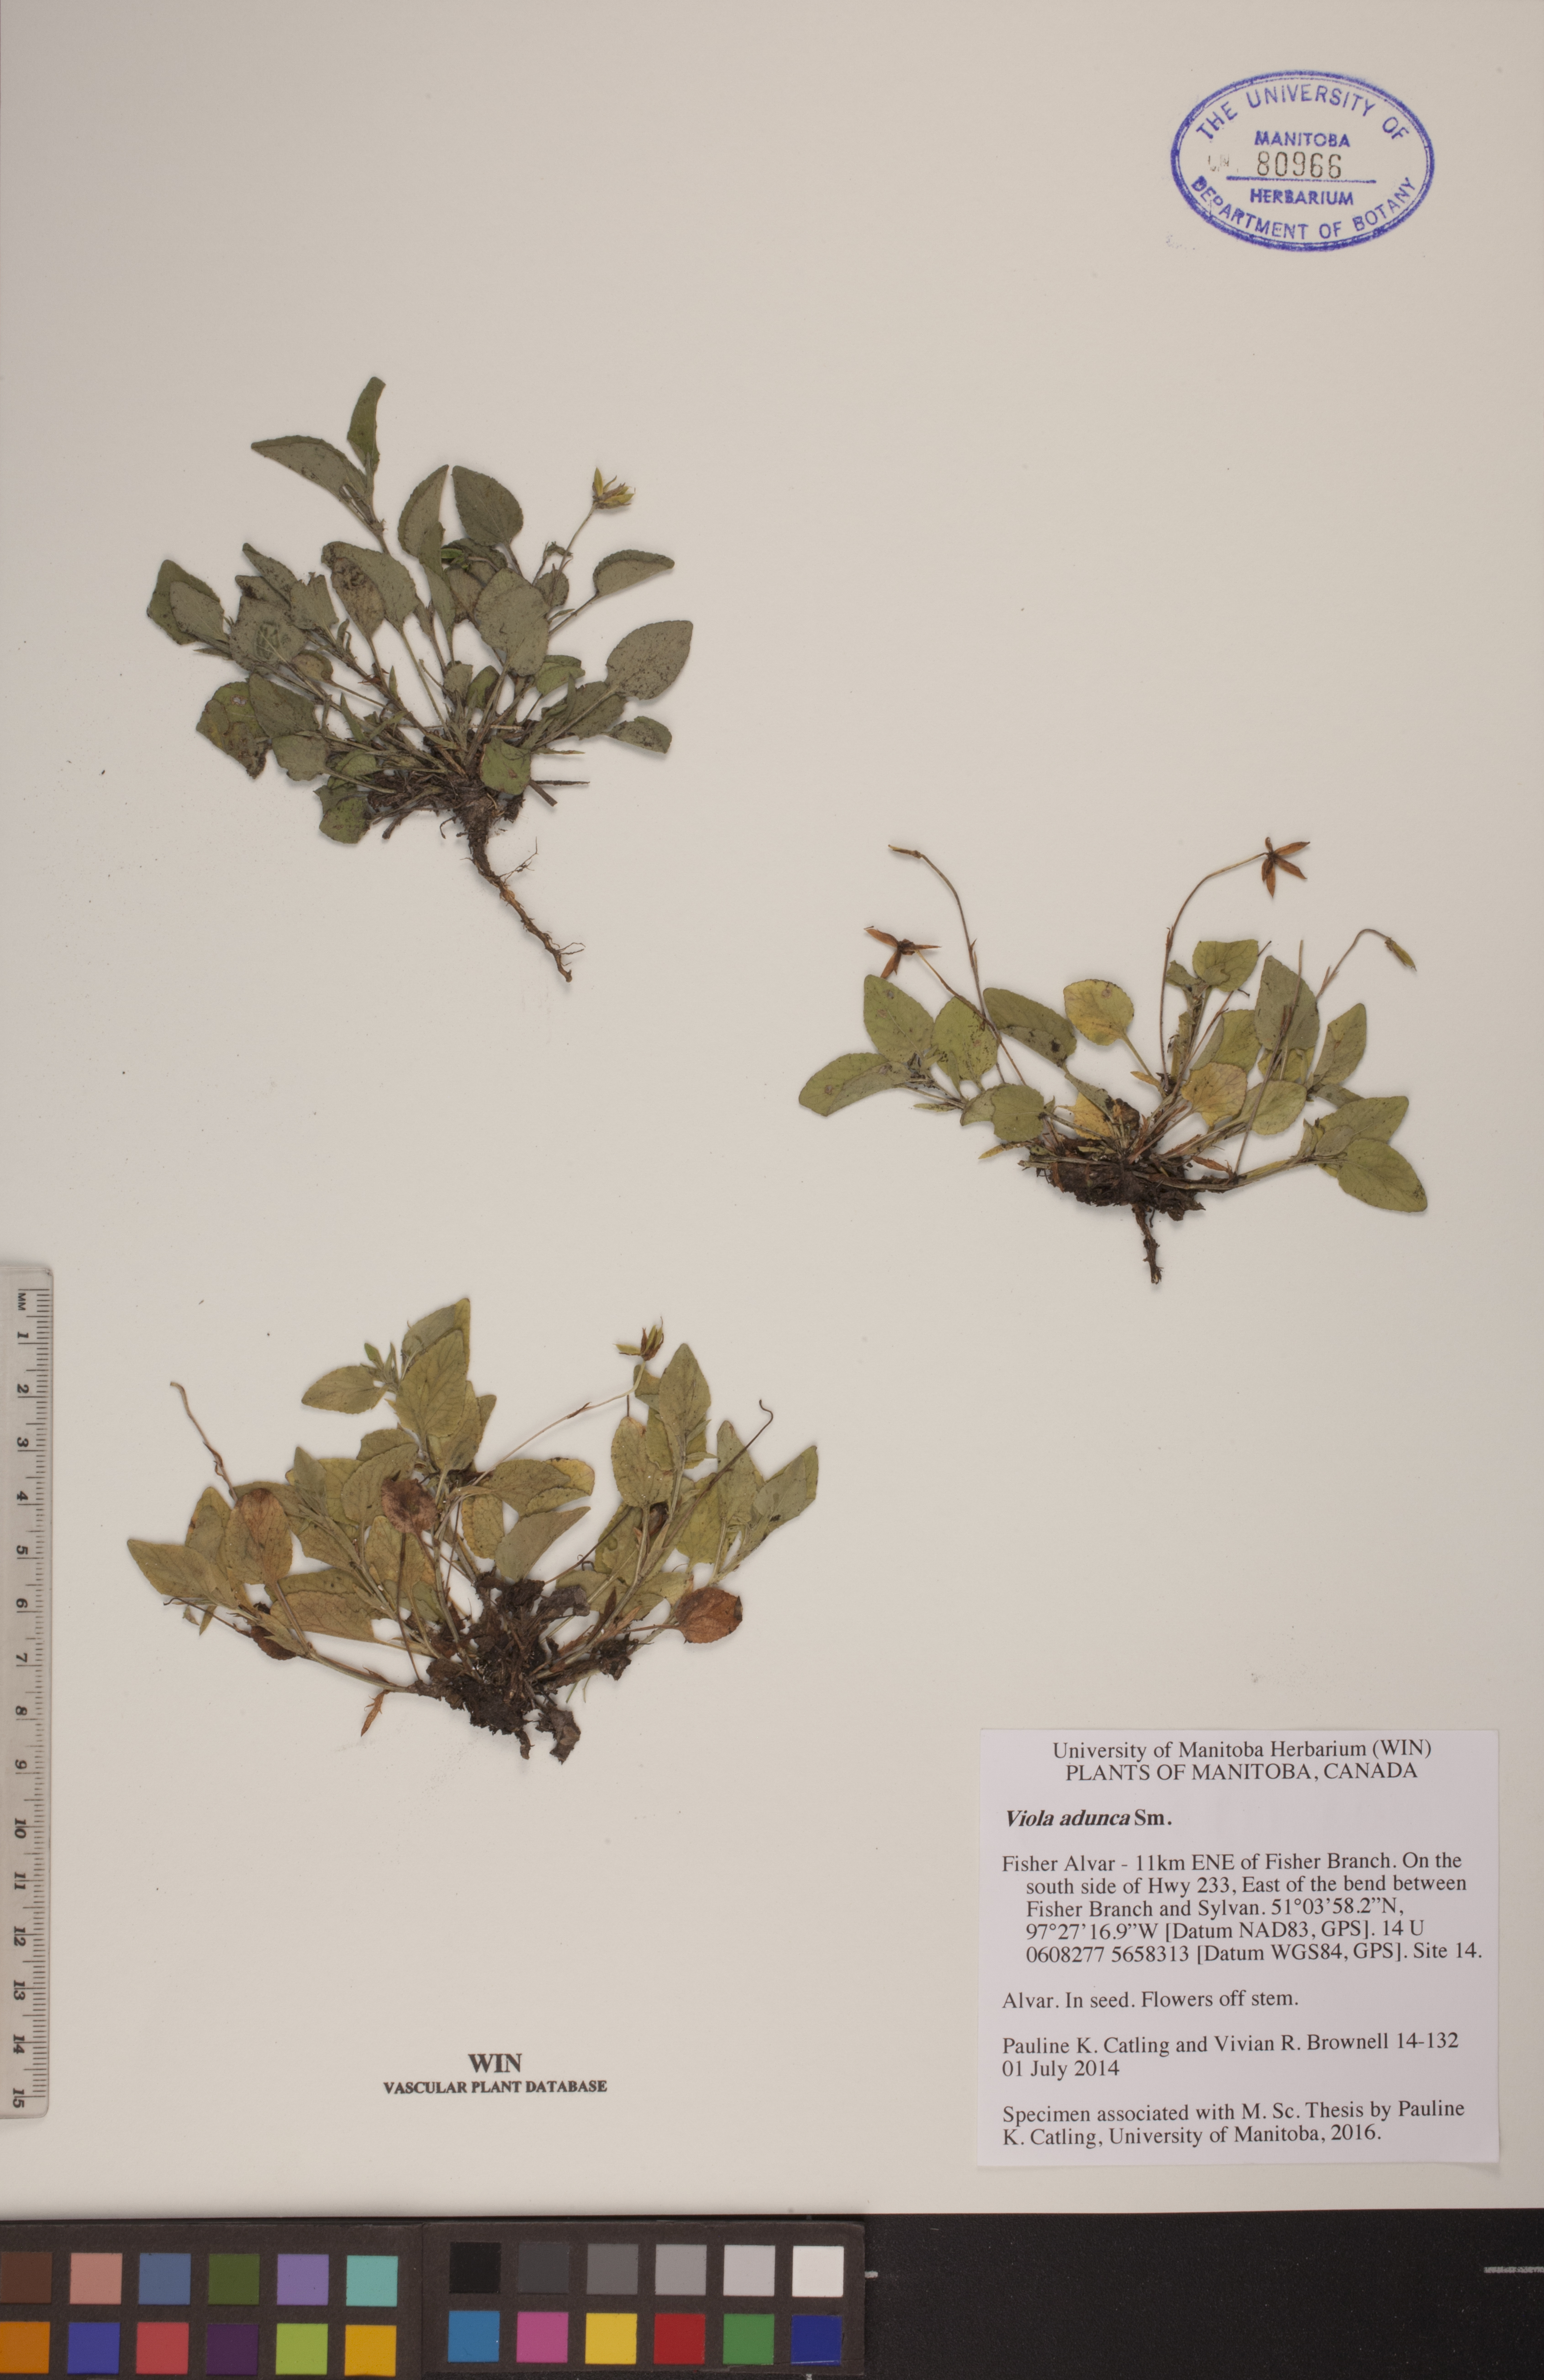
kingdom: Plantae
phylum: Tracheophyta
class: Magnoliopsida
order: Malpighiales
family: Violaceae
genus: Viola
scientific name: Viola adunca
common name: Sand violet
